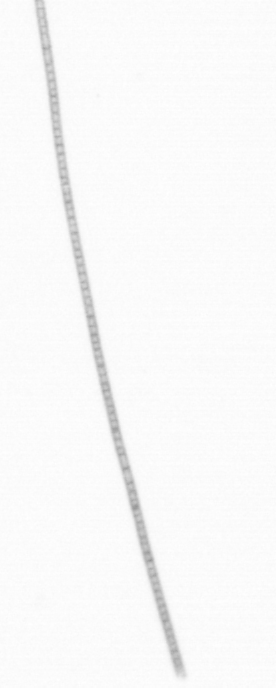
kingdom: Chromista
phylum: Ochrophyta
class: Bacillariophyceae
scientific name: Bacillariophyceae
